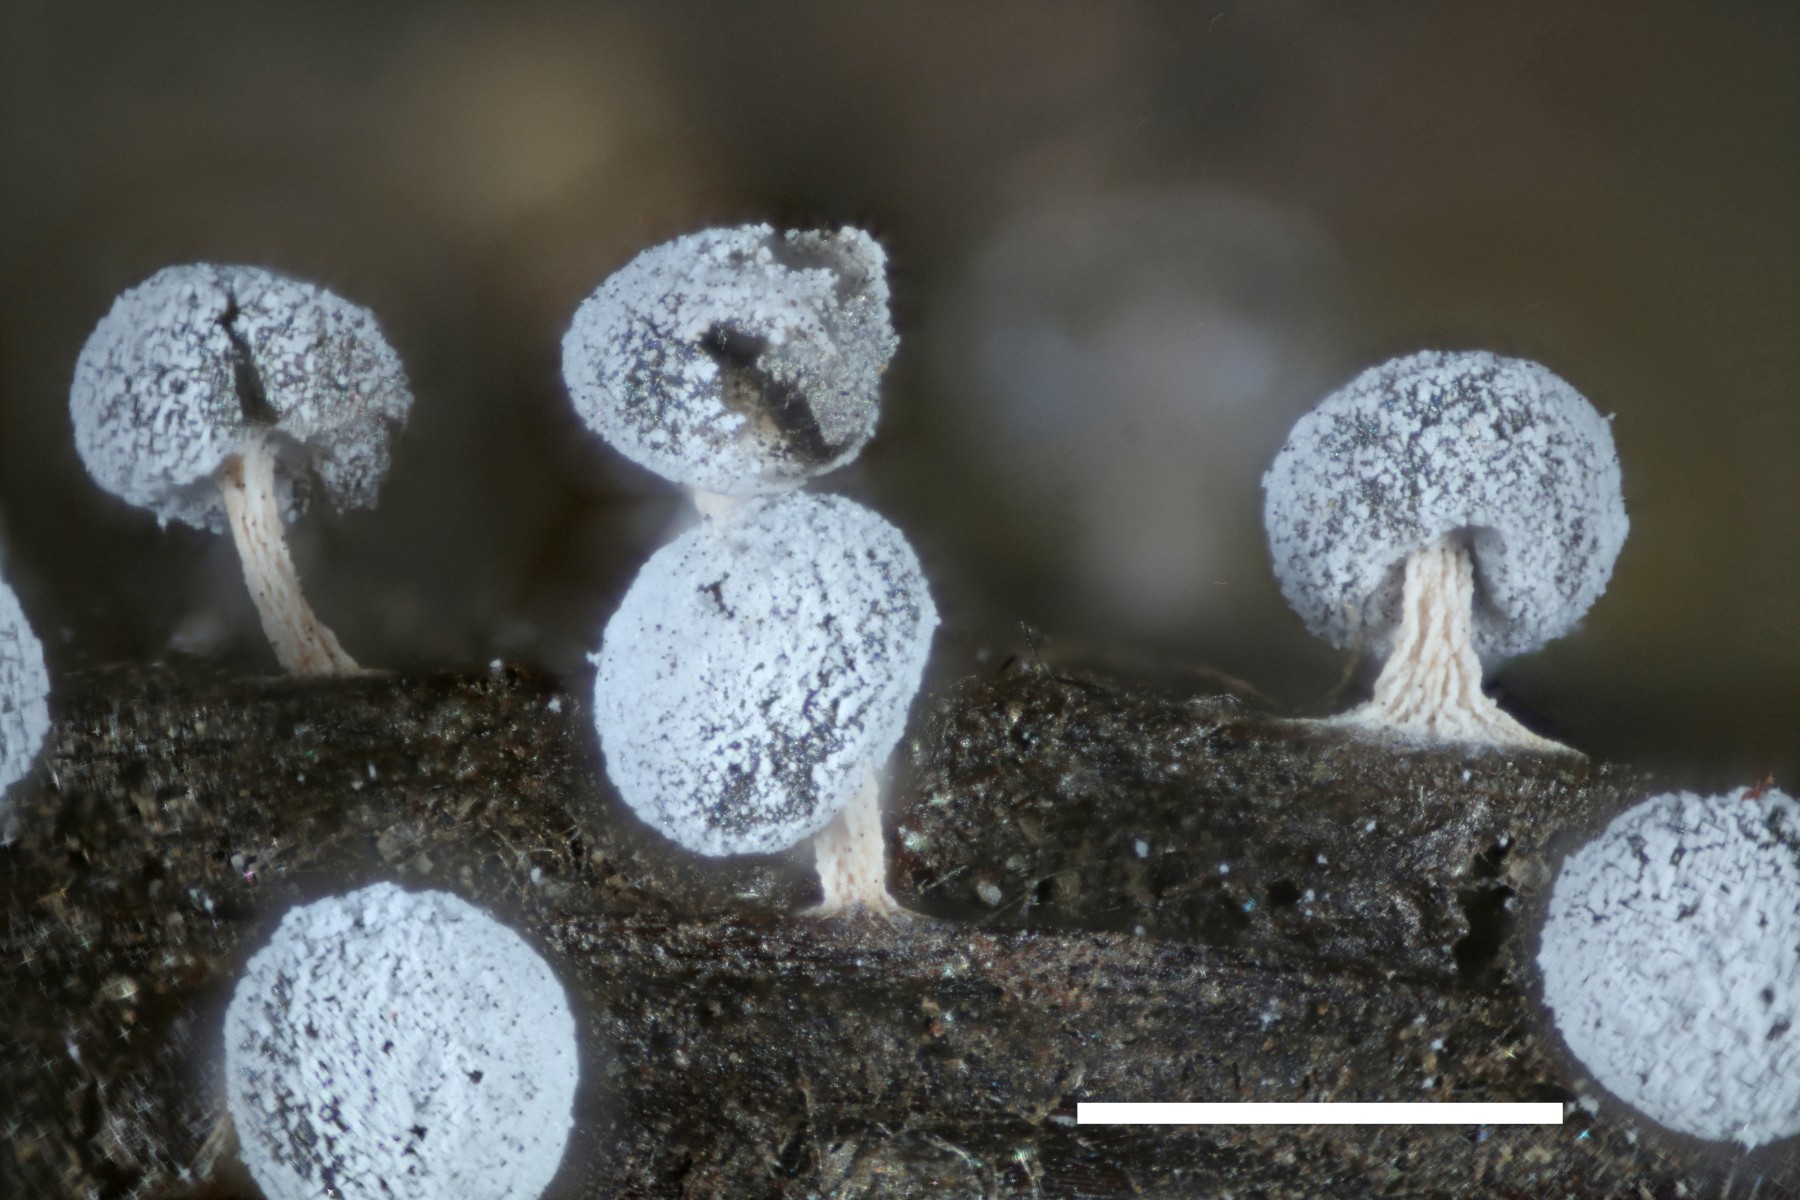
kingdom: Protozoa
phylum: Mycetozoa
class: Myxomycetes
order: Physarales
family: Didymiaceae
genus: Didymium
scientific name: Didymium squamulosum
